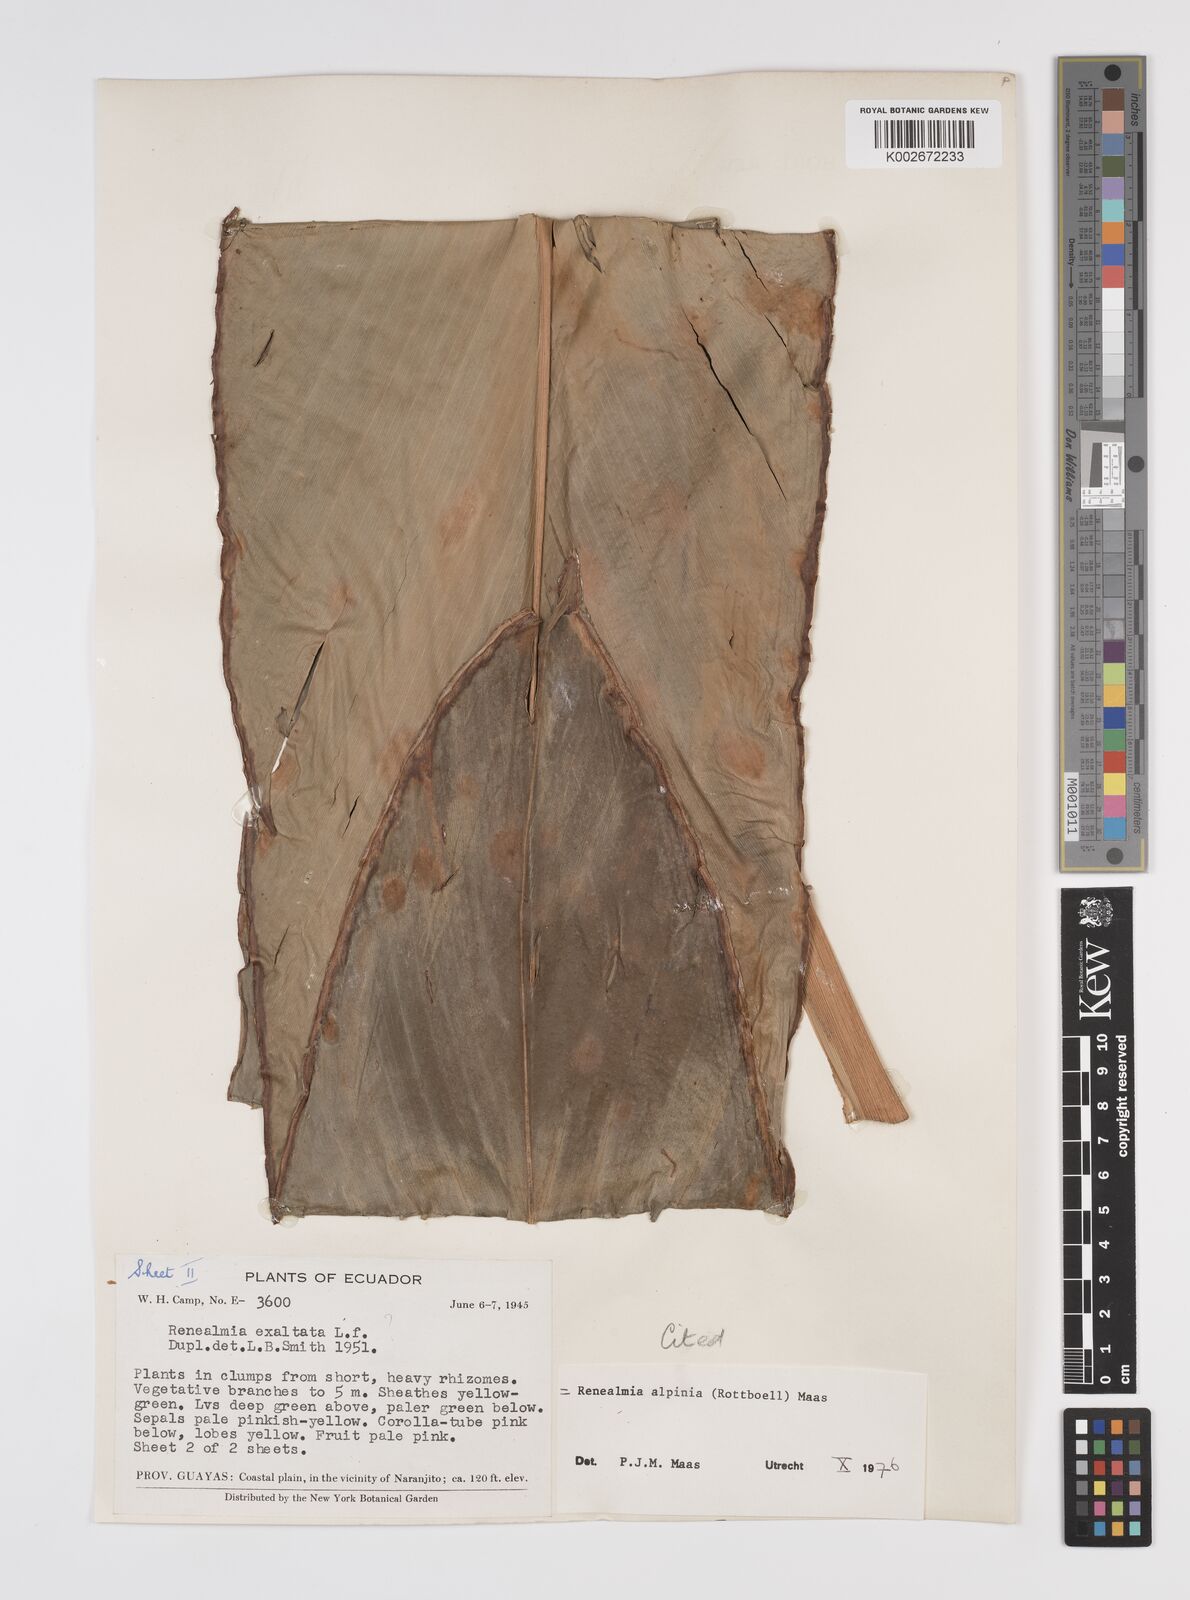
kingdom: Plantae
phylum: Tracheophyta
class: Liliopsida
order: Zingiberales
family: Zingiberaceae
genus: Renealmia
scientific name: Renealmia alpinia
